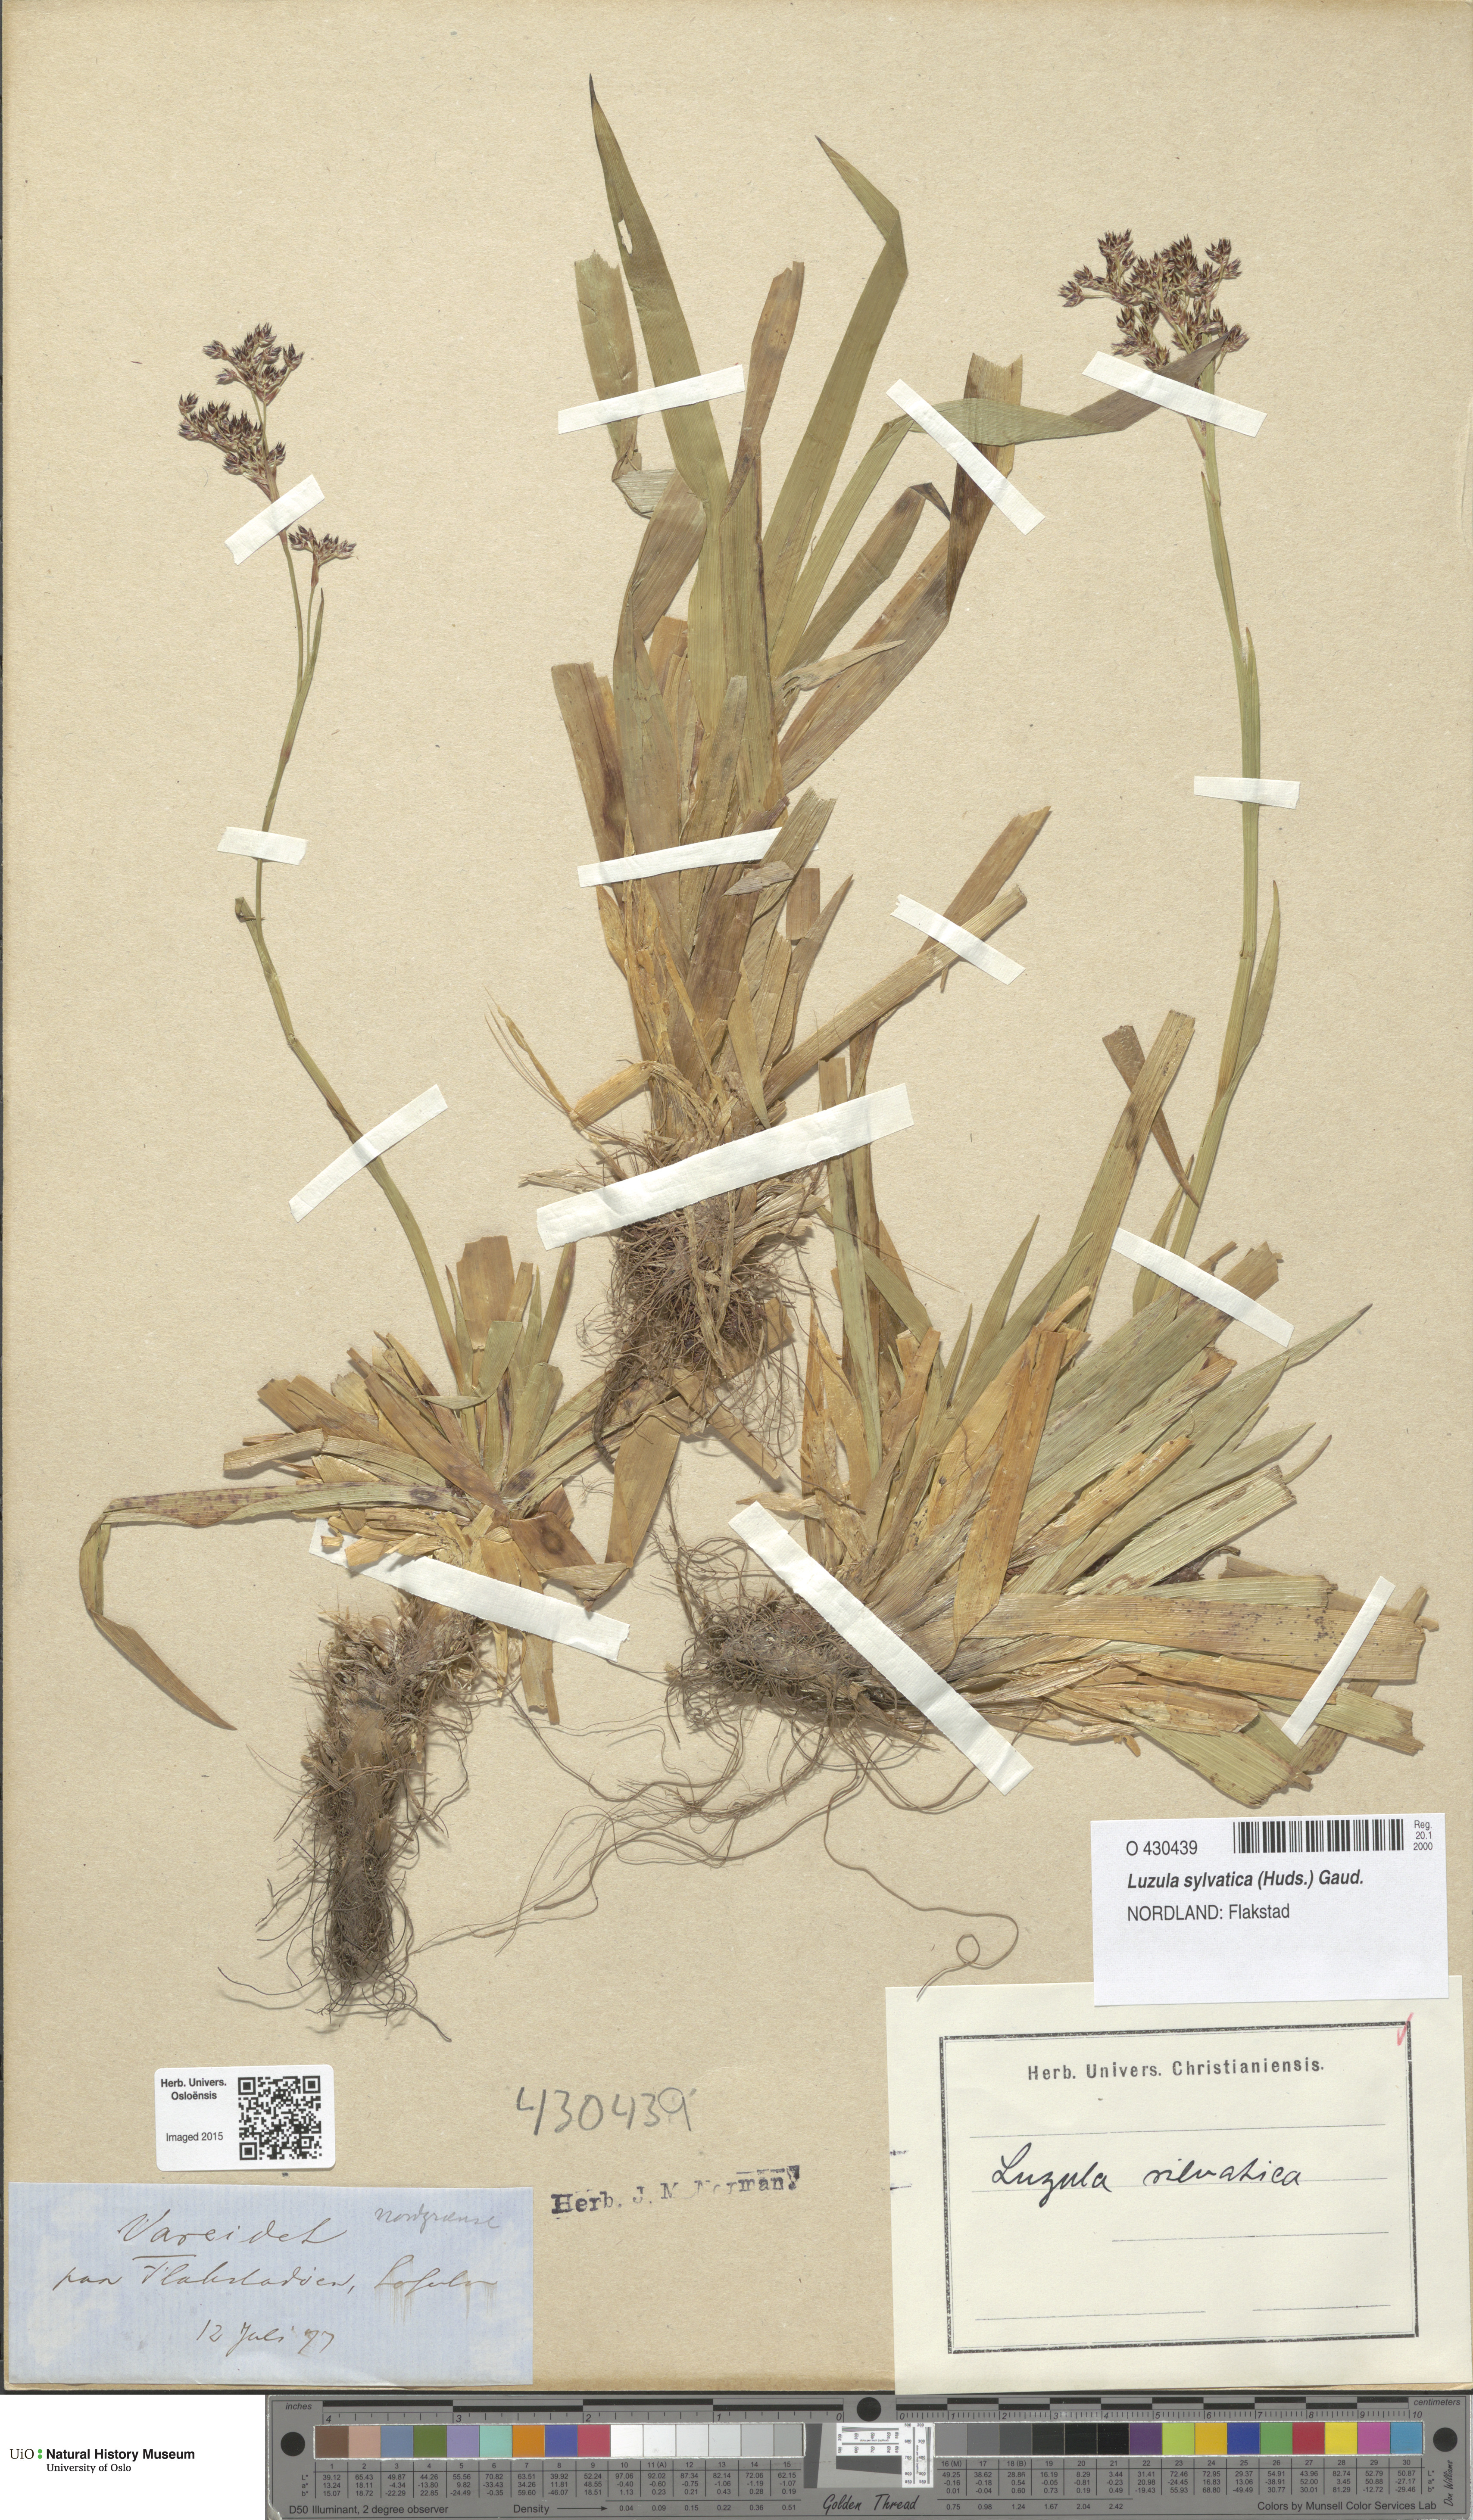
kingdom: Plantae
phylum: Tracheophyta
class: Liliopsida
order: Poales
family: Juncaceae
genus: Luzula
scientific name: Luzula sylvatica
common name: Great wood-rush
